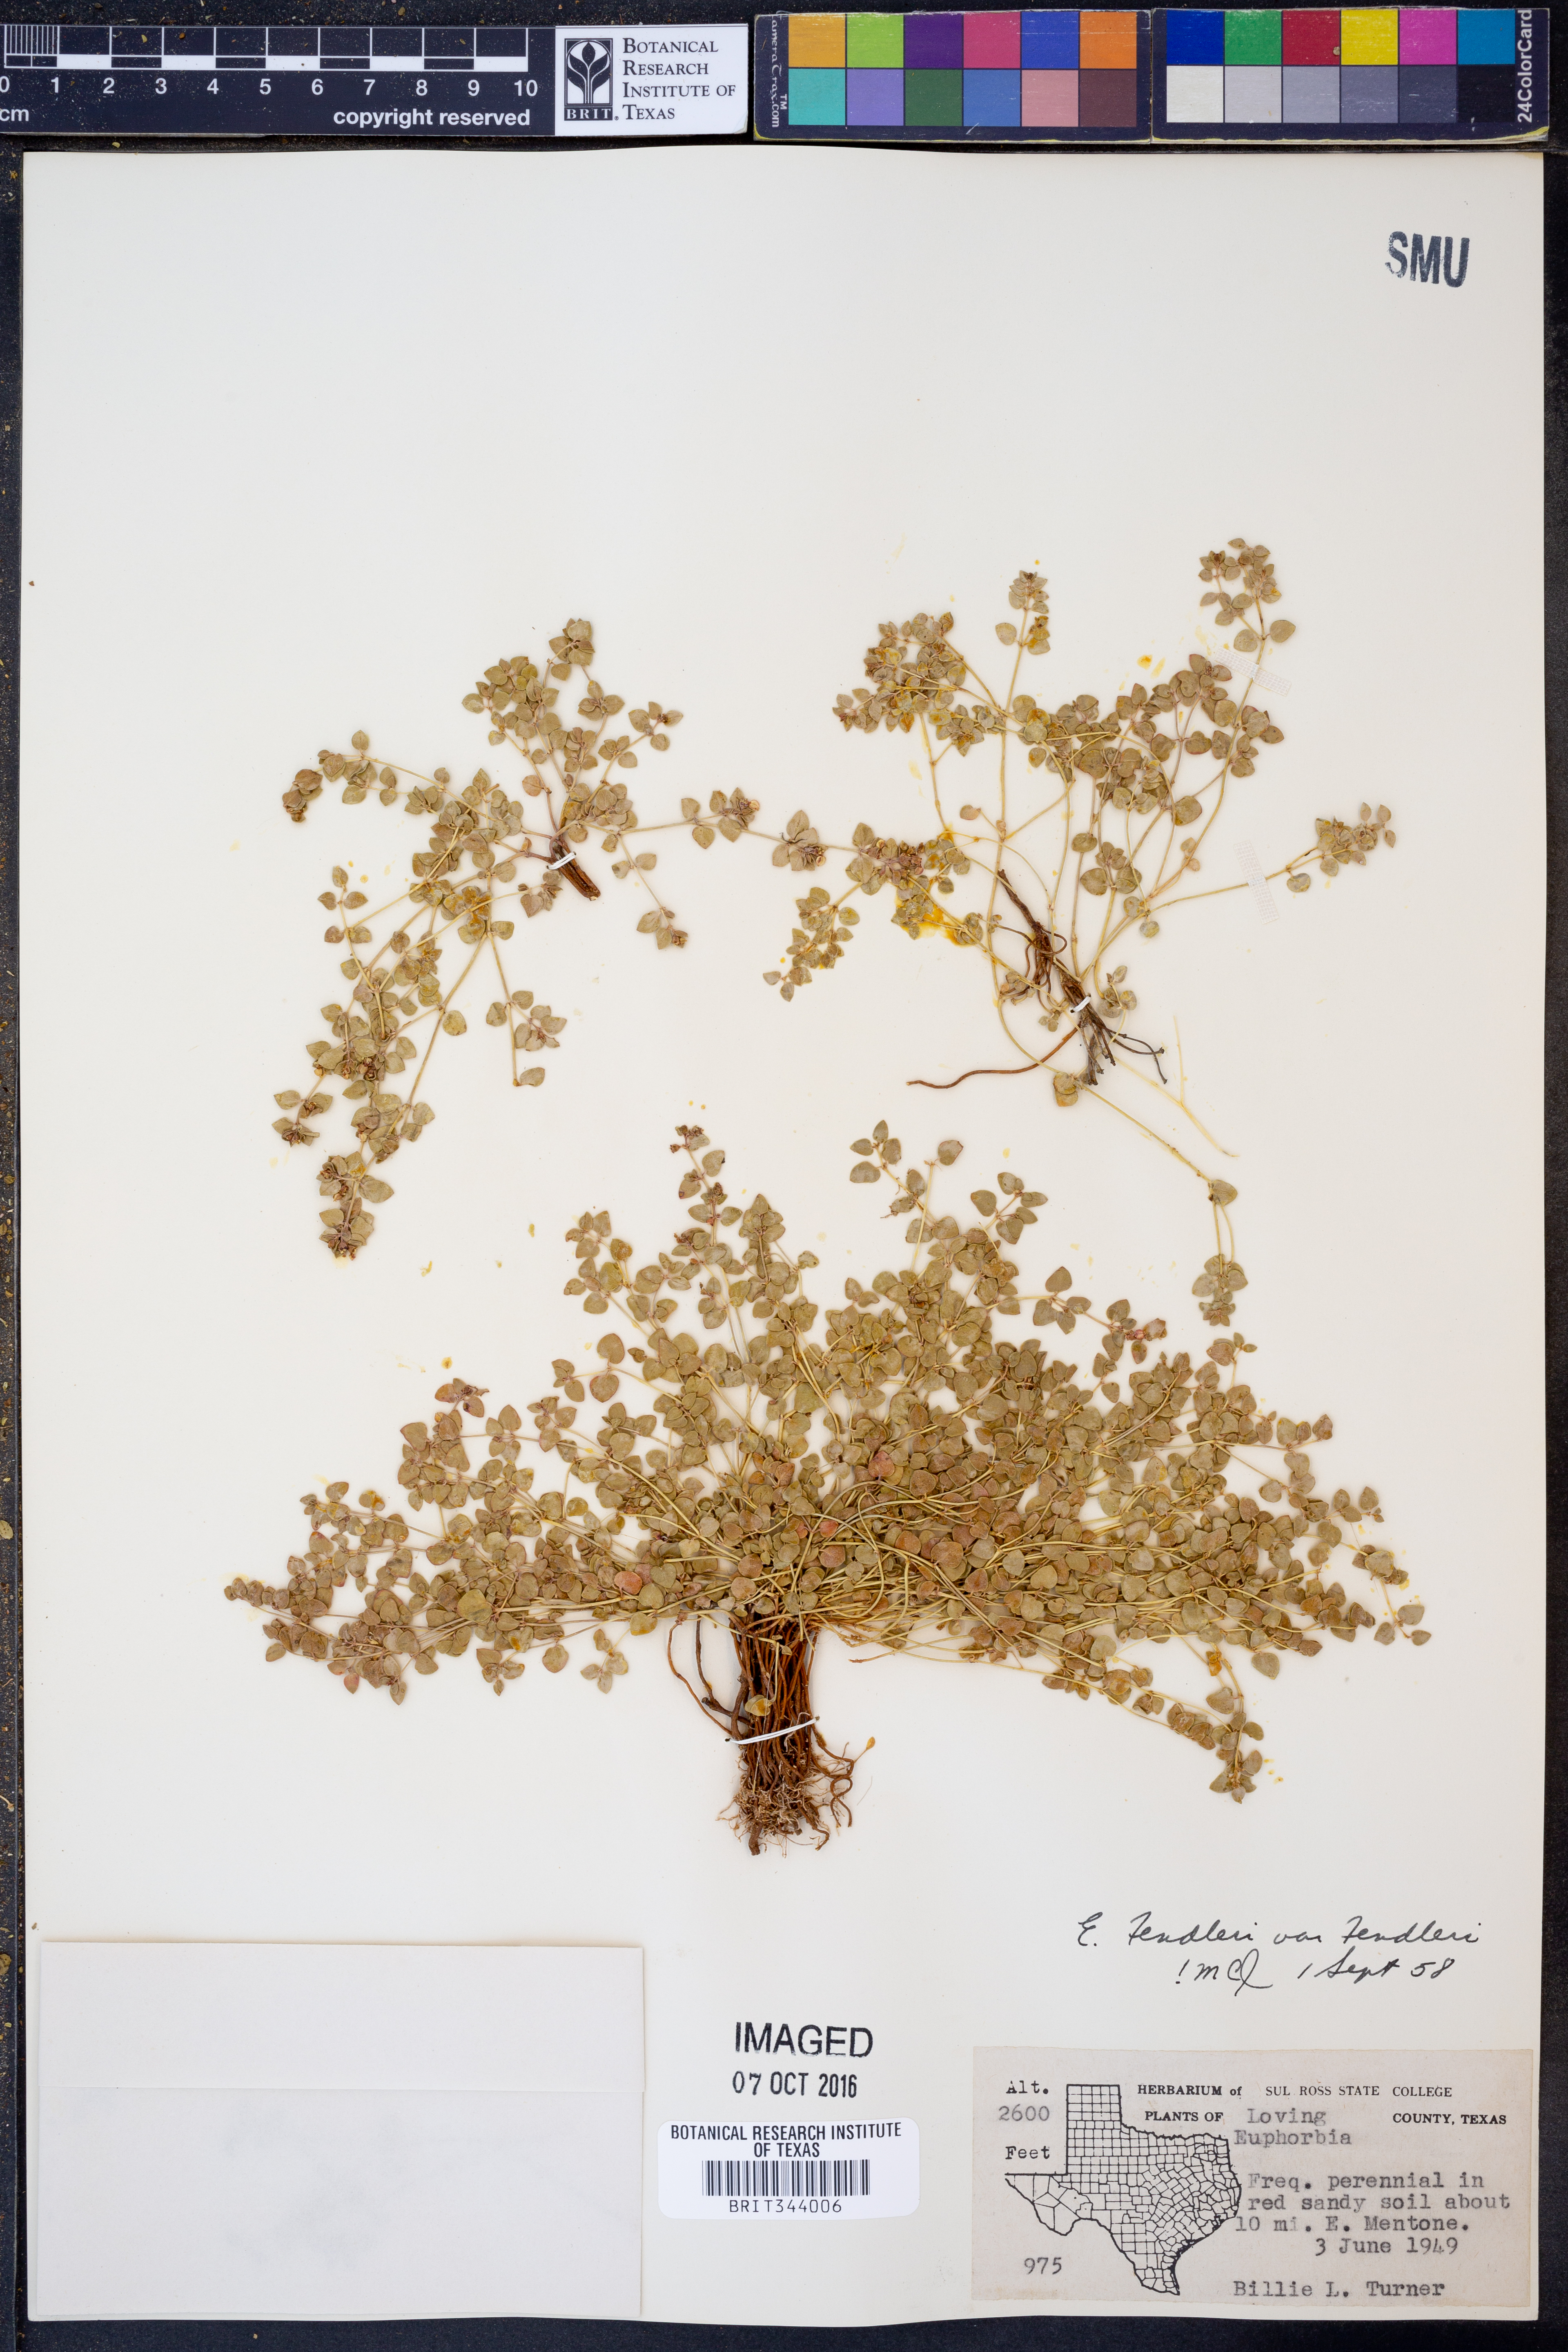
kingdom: Plantae
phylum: Tracheophyta
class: Magnoliopsida
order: Malpighiales
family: Euphorbiaceae
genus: Euphorbia
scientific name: Euphorbia fendleri
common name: Fendler's euphorbia
